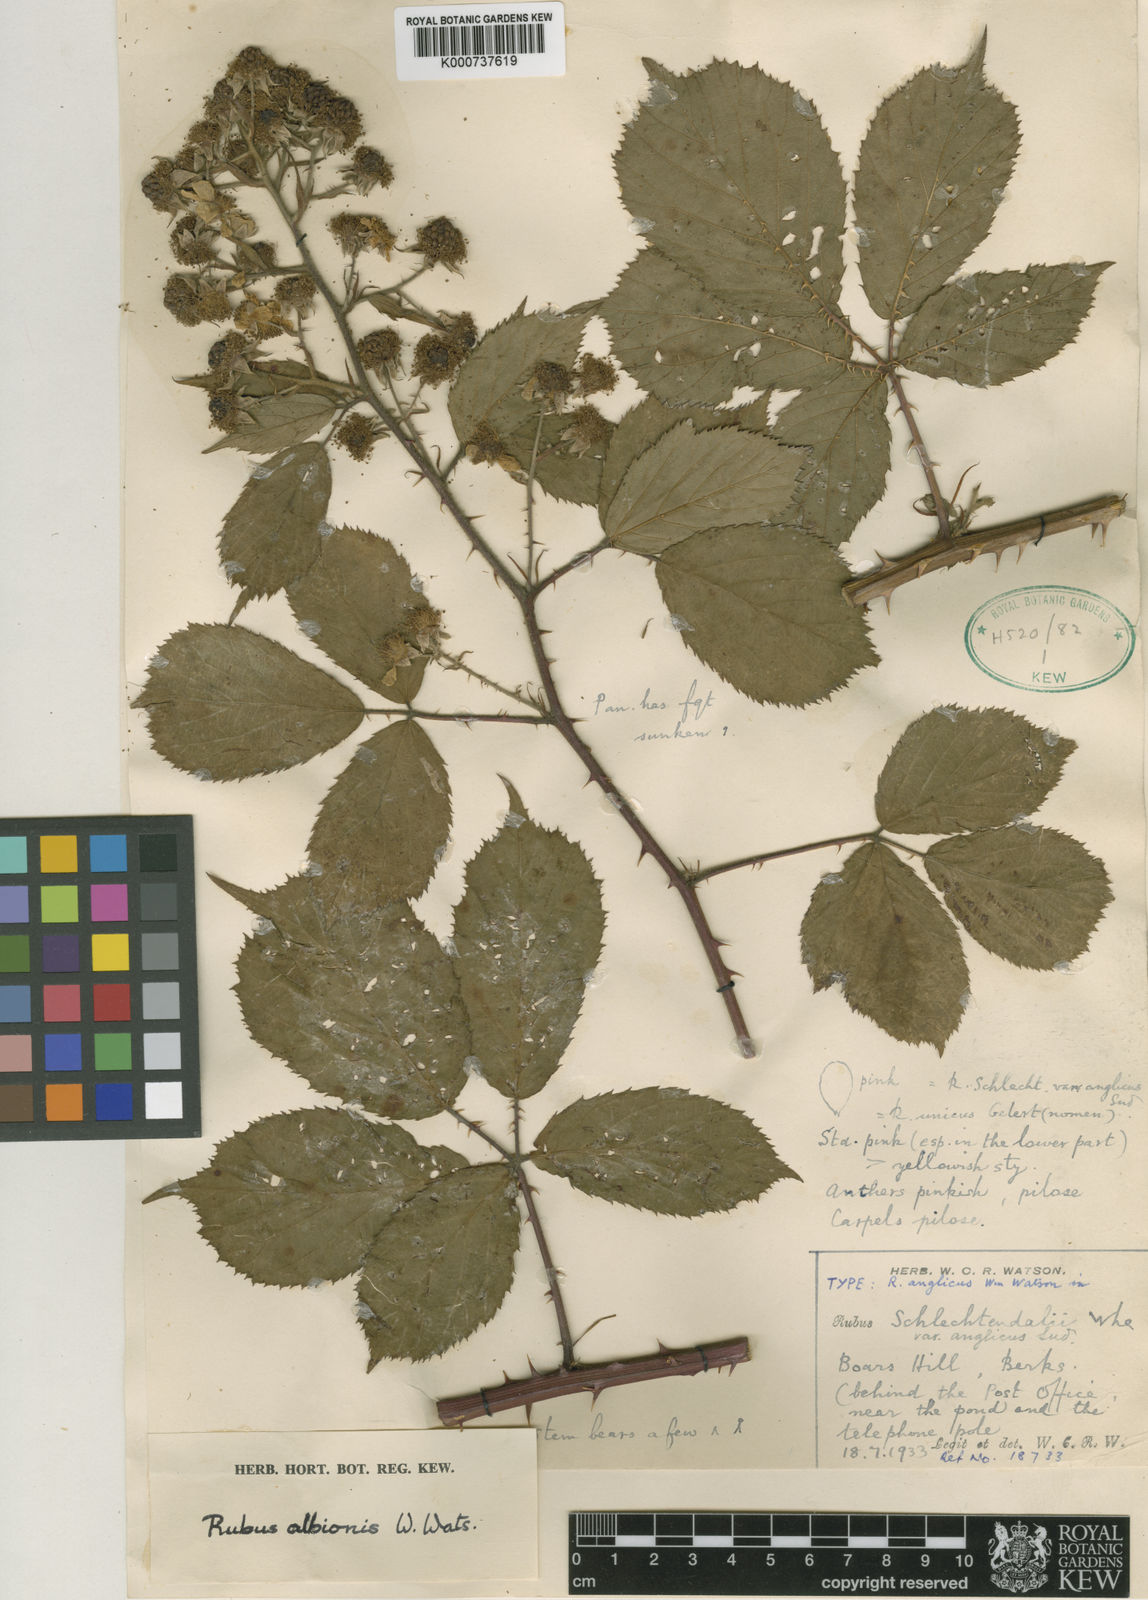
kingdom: Plantae
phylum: Tracheophyta
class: Magnoliopsida
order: Rosales
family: Rosaceae
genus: Rubus
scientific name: Rubus albionis
